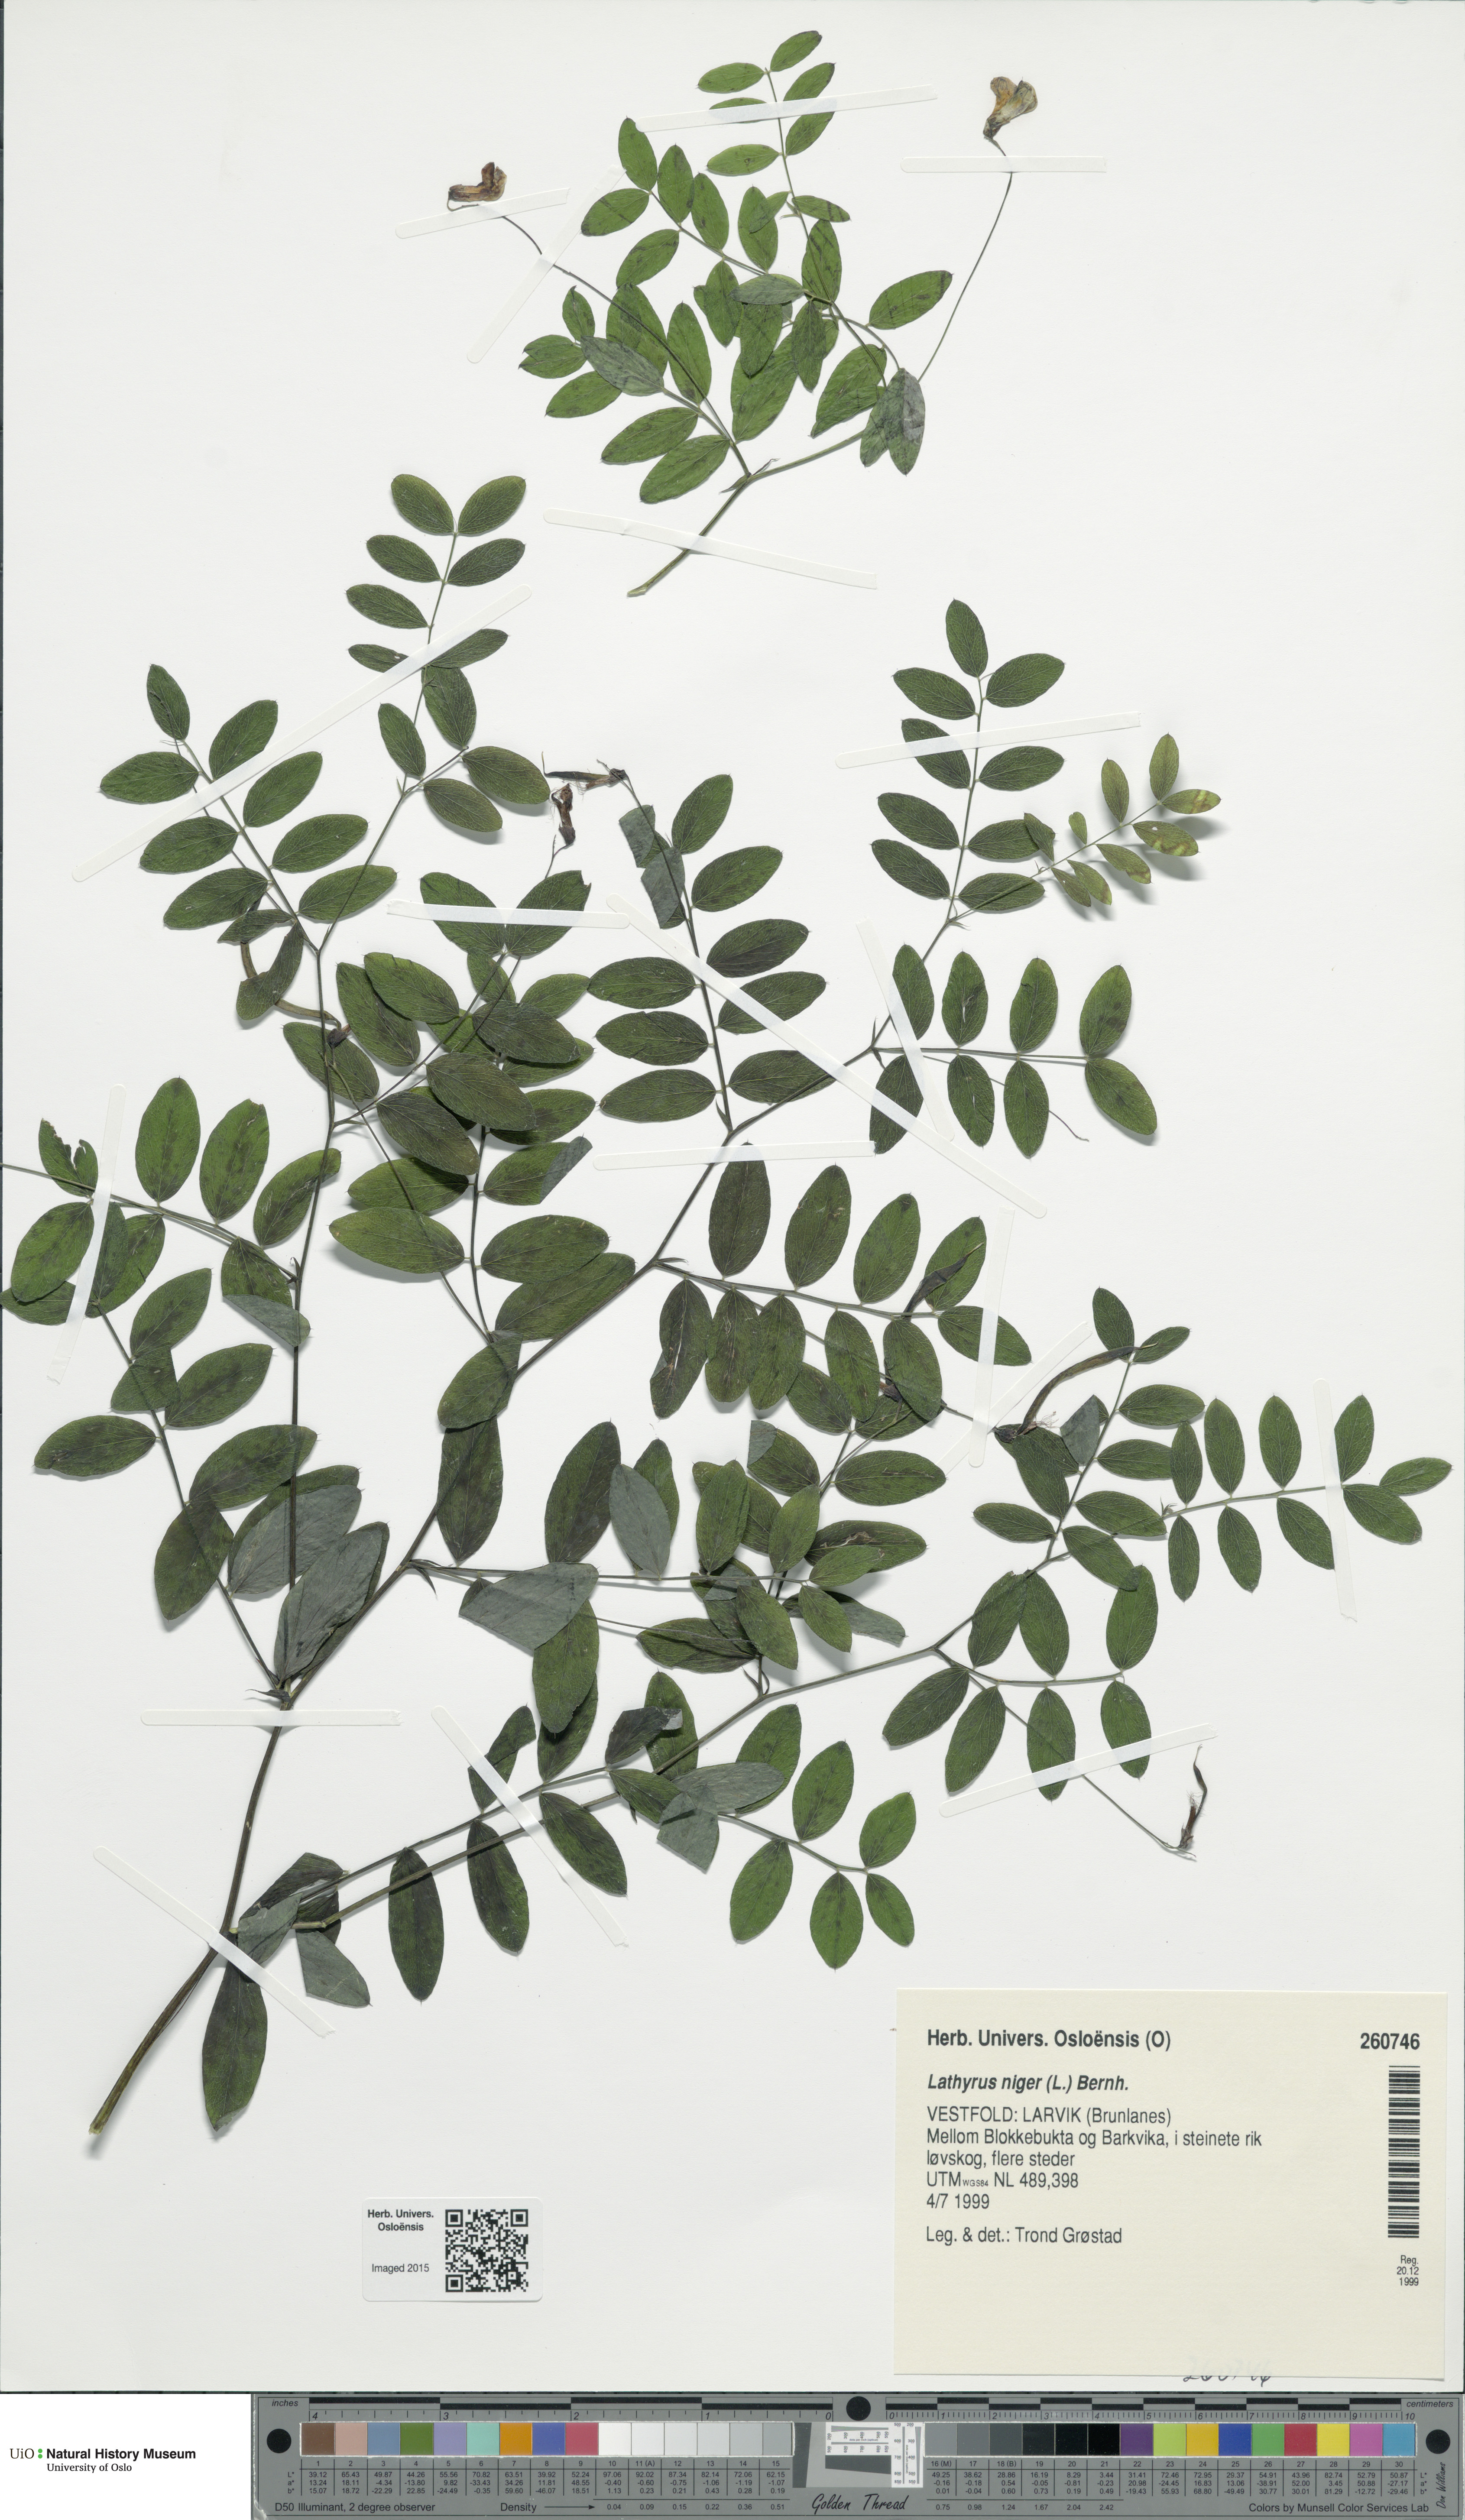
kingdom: Plantae
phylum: Tracheophyta
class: Magnoliopsida
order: Fabales
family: Fabaceae
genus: Lathyrus
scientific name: Lathyrus niger
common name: Black pea
